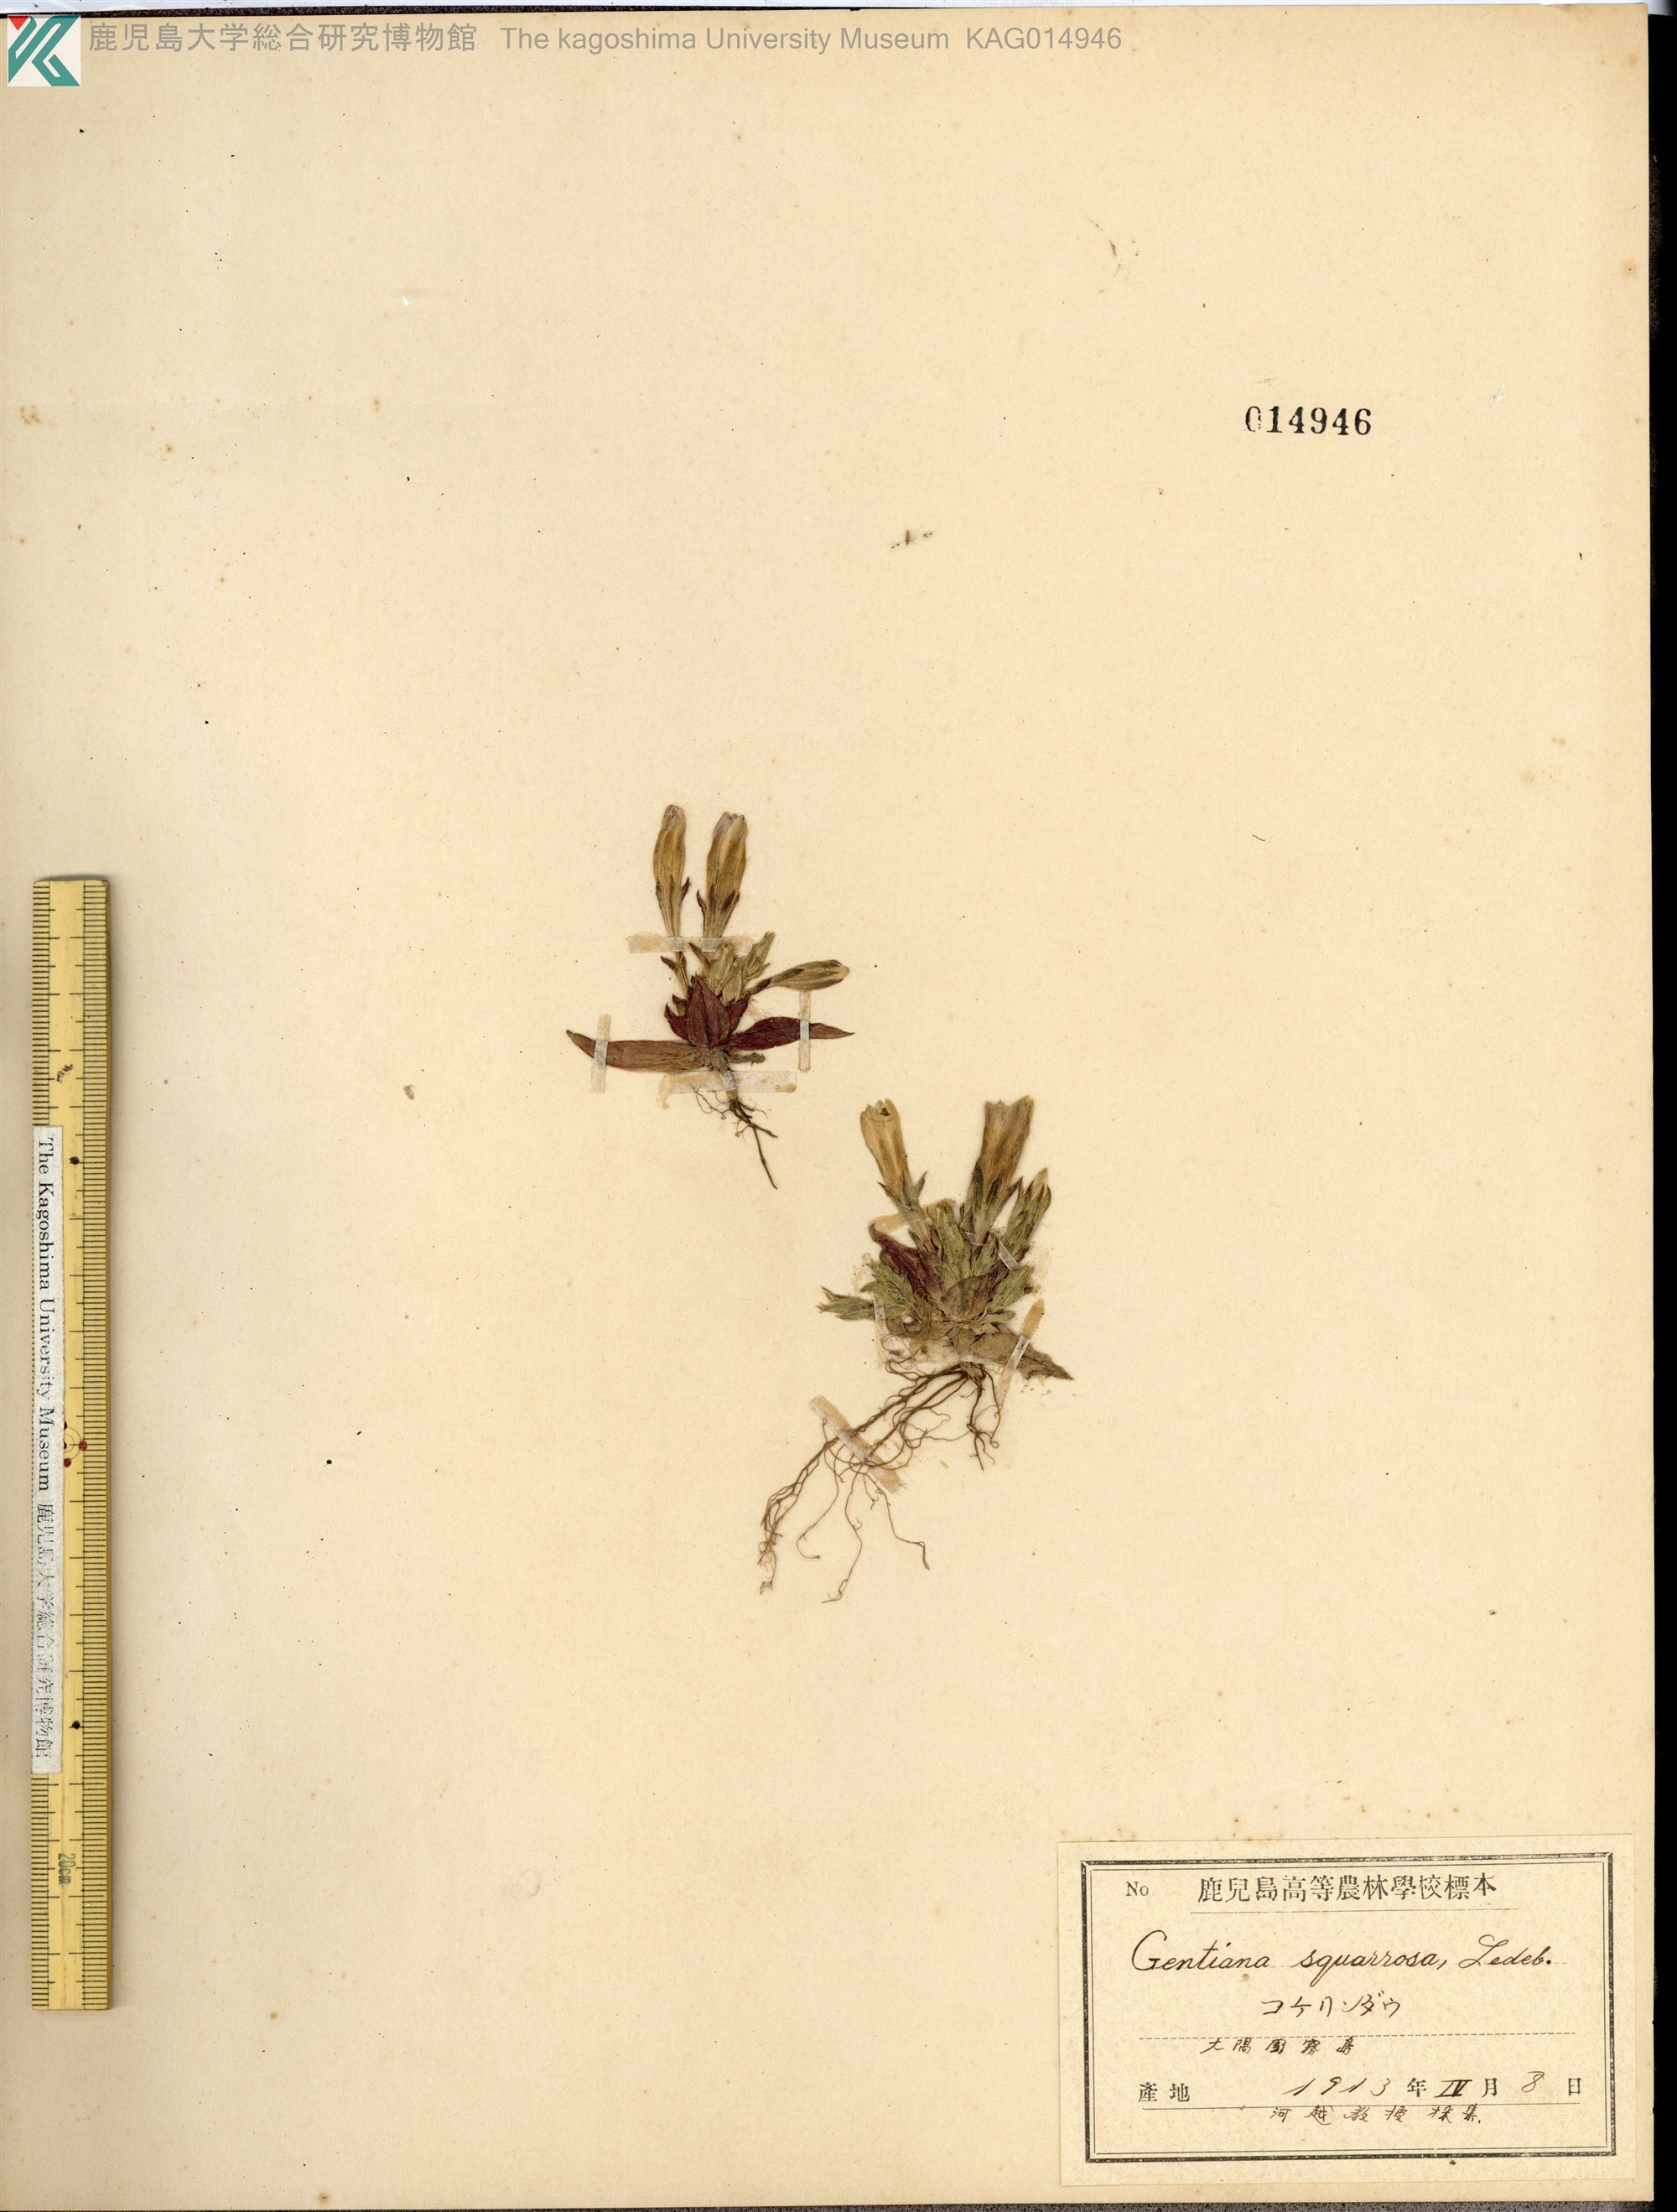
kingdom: Plantae
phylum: Tracheophyta
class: Magnoliopsida
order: Gentianales
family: Gentianaceae
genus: Gentiana
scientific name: Gentiana thunbergii
